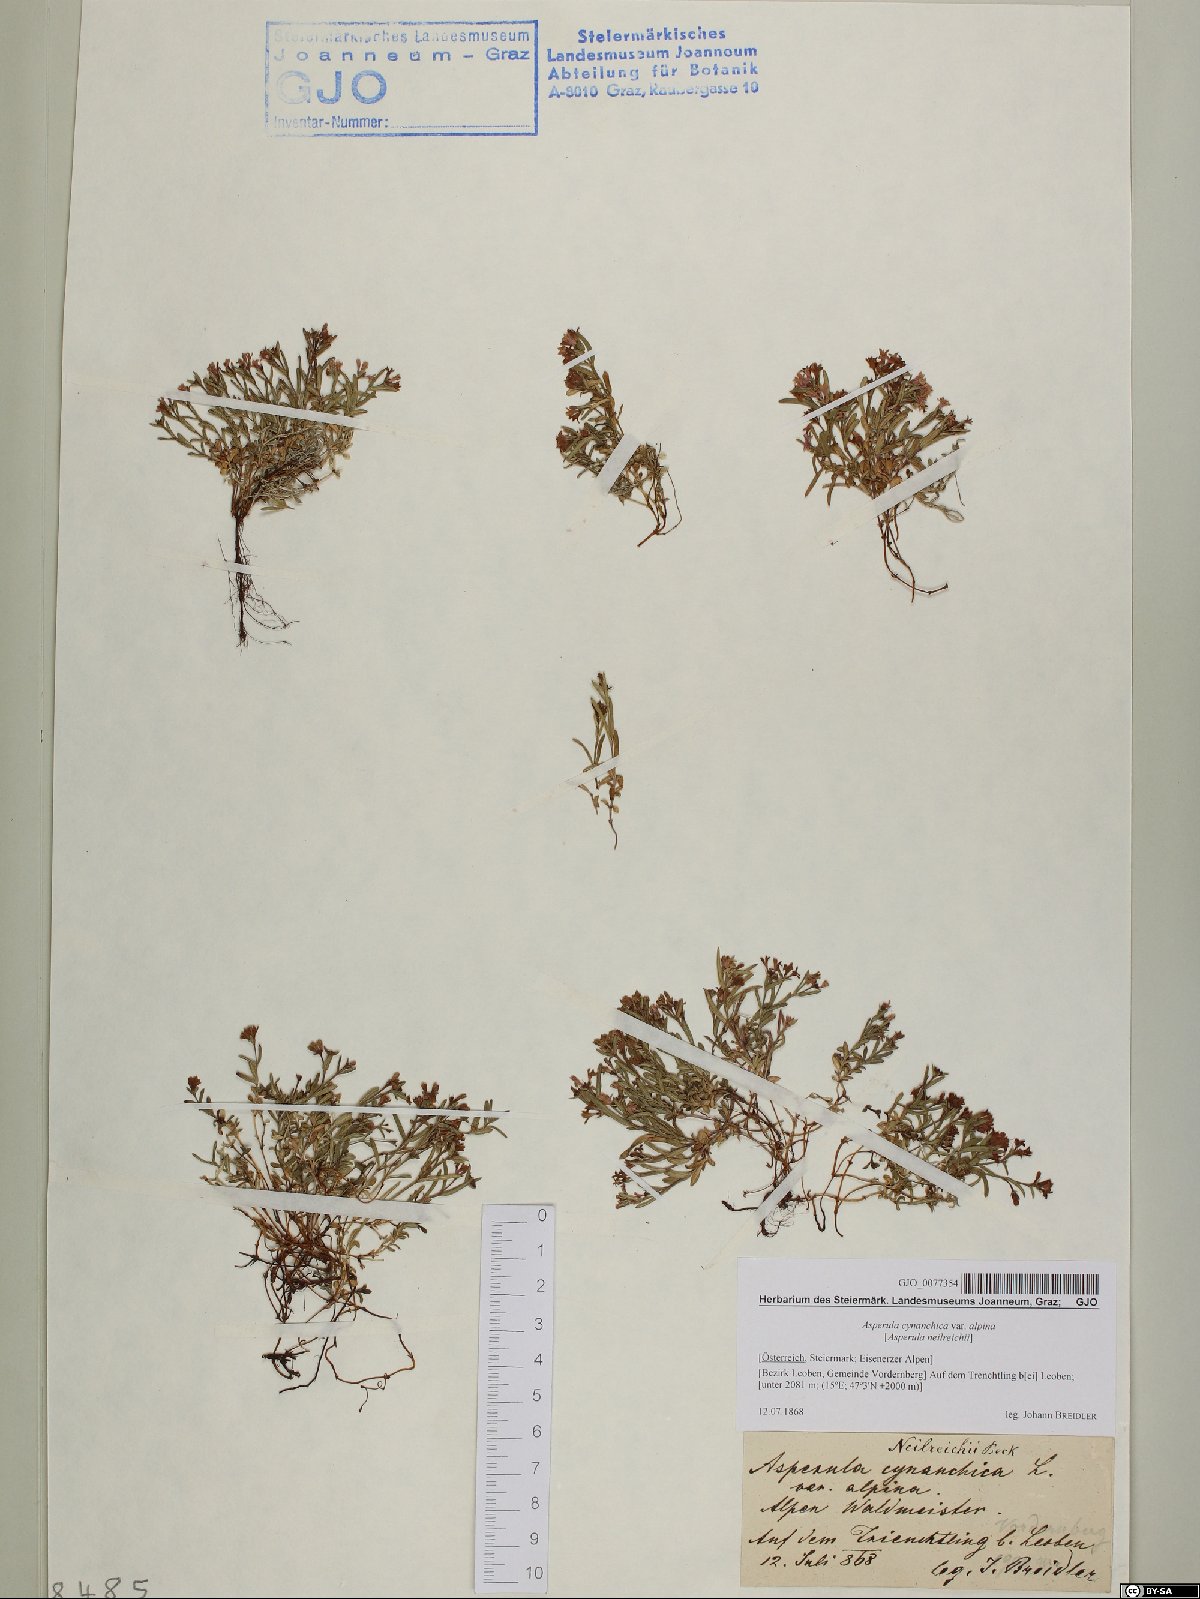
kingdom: Plantae
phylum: Tracheophyta
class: Magnoliopsida
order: Gentianales
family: Rubiaceae
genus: Cynanchica
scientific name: Cynanchica neilreichii
